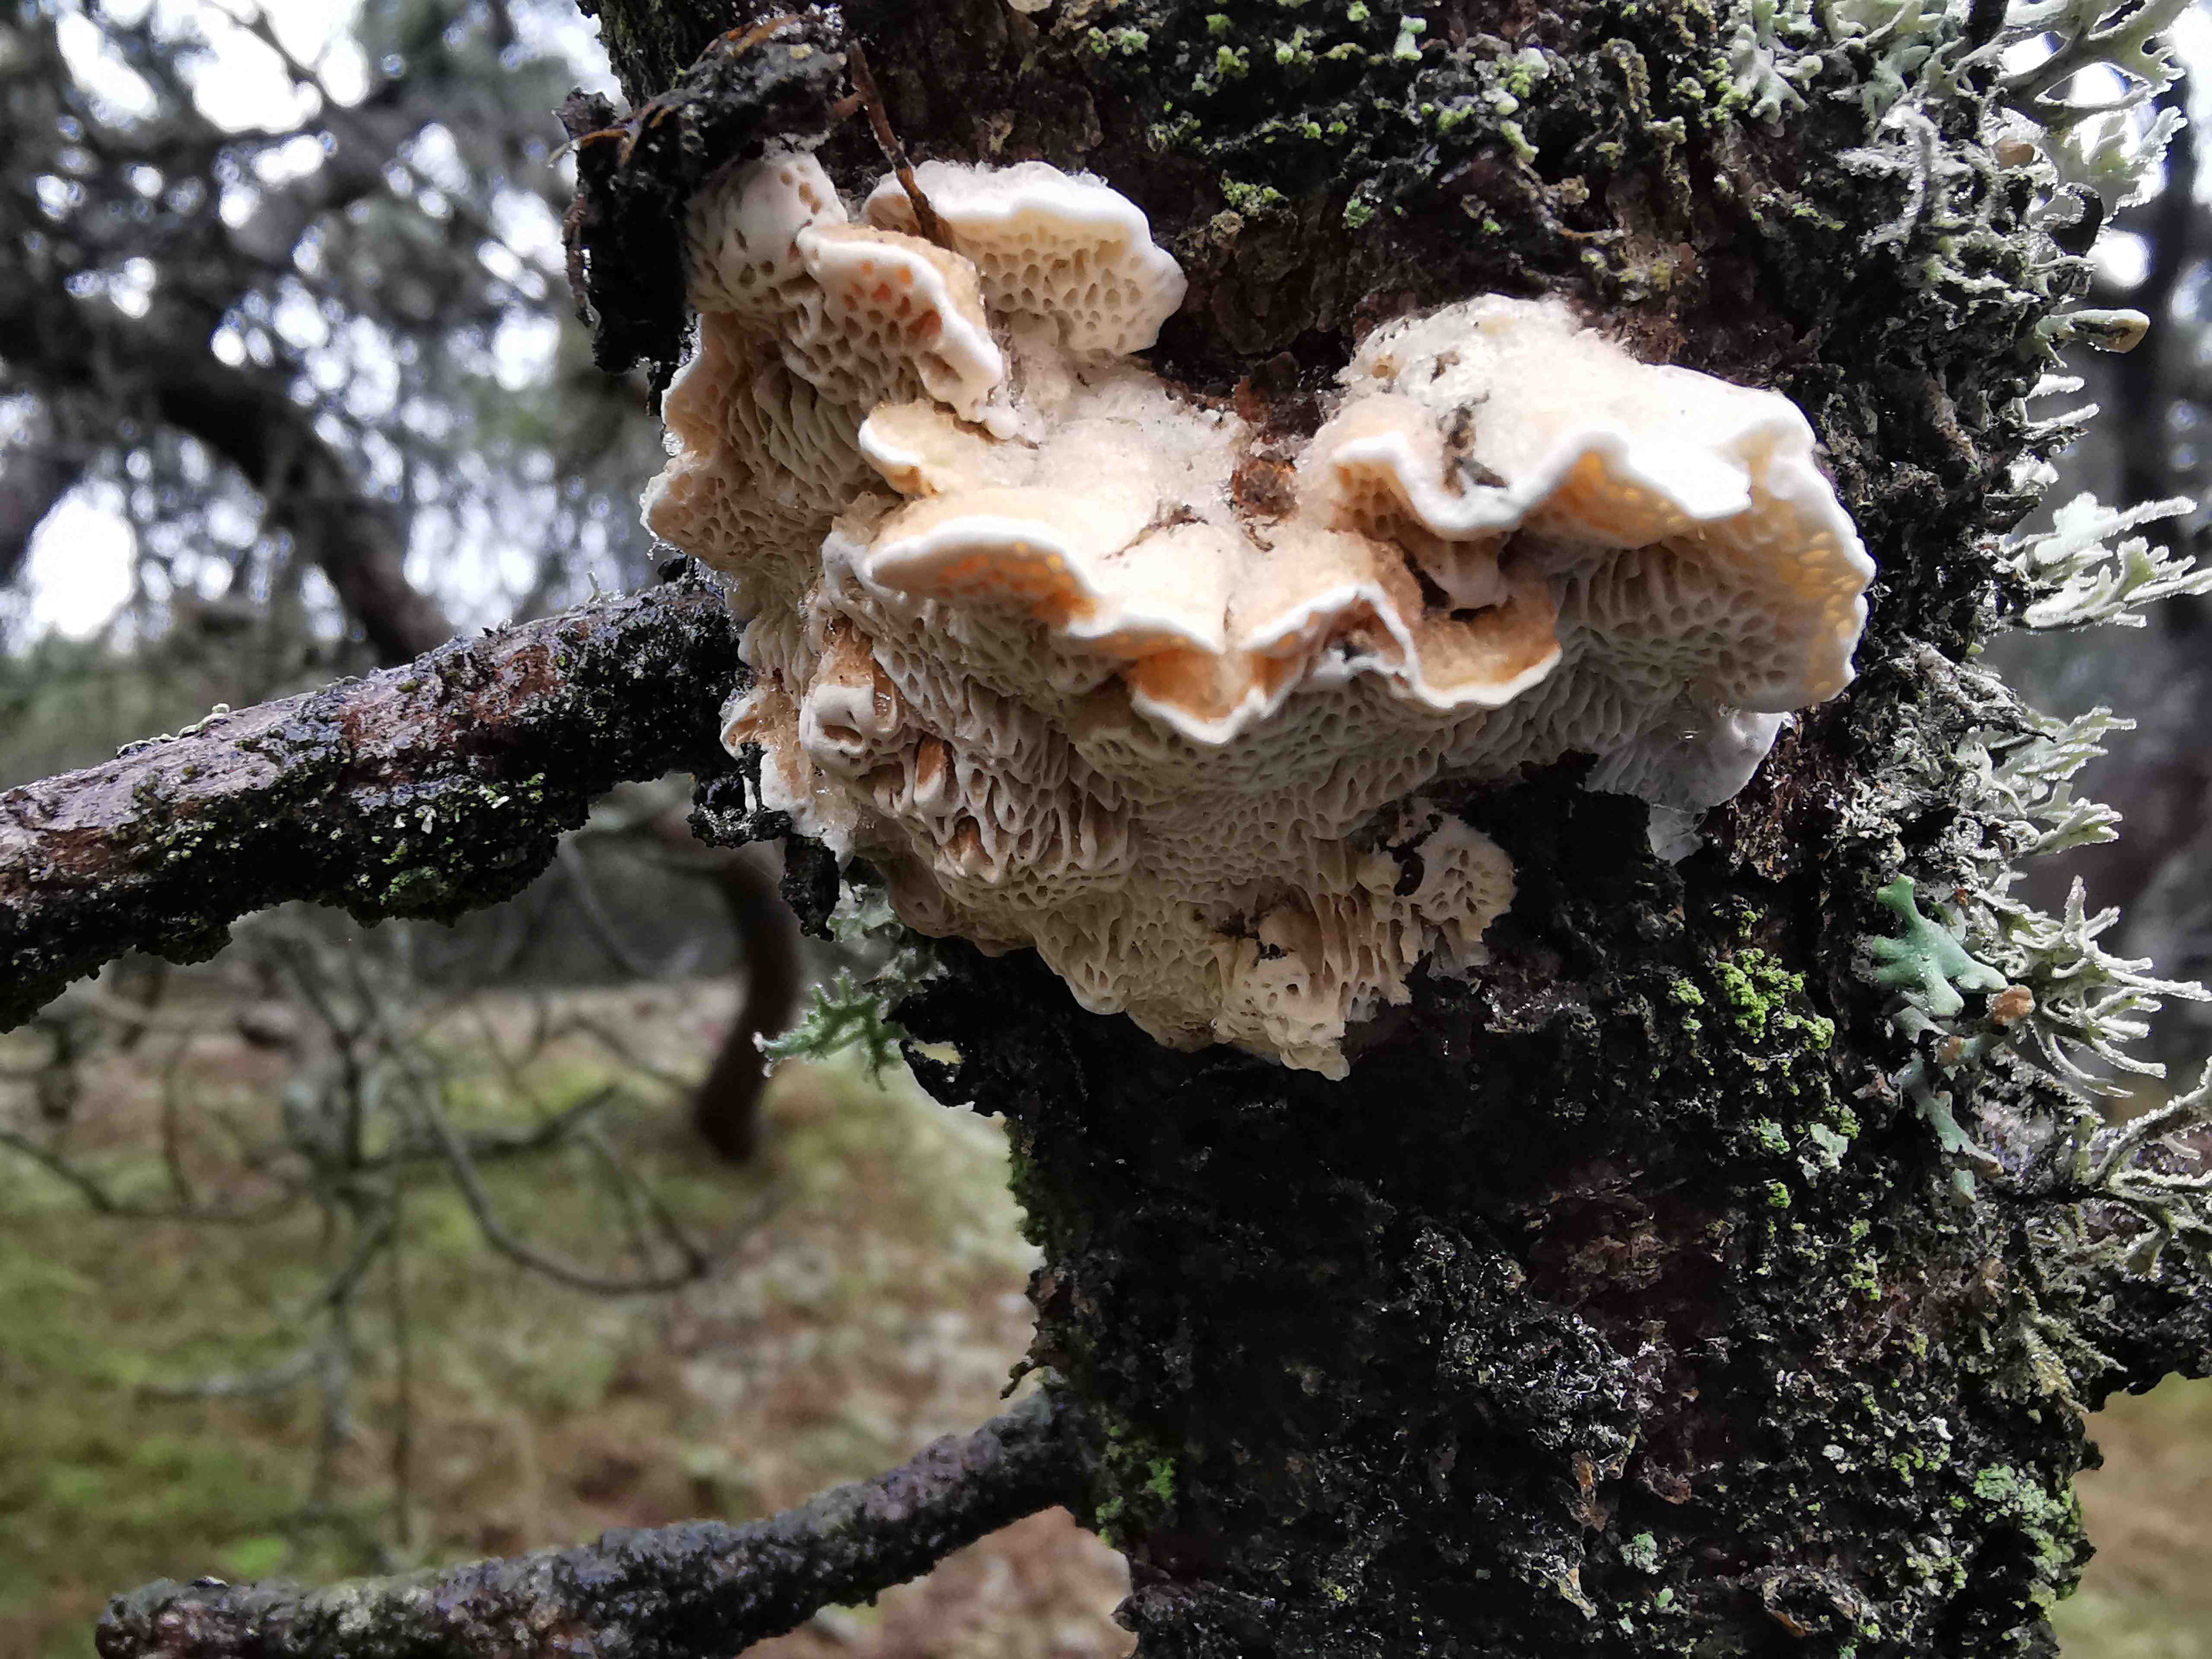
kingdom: Fungi
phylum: Basidiomycota
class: Agaricomycetes
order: Polyporales
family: Fomitopsidaceae
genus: Fomitopsis
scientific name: Fomitopsis
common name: fyrre-skiveporesvamp
